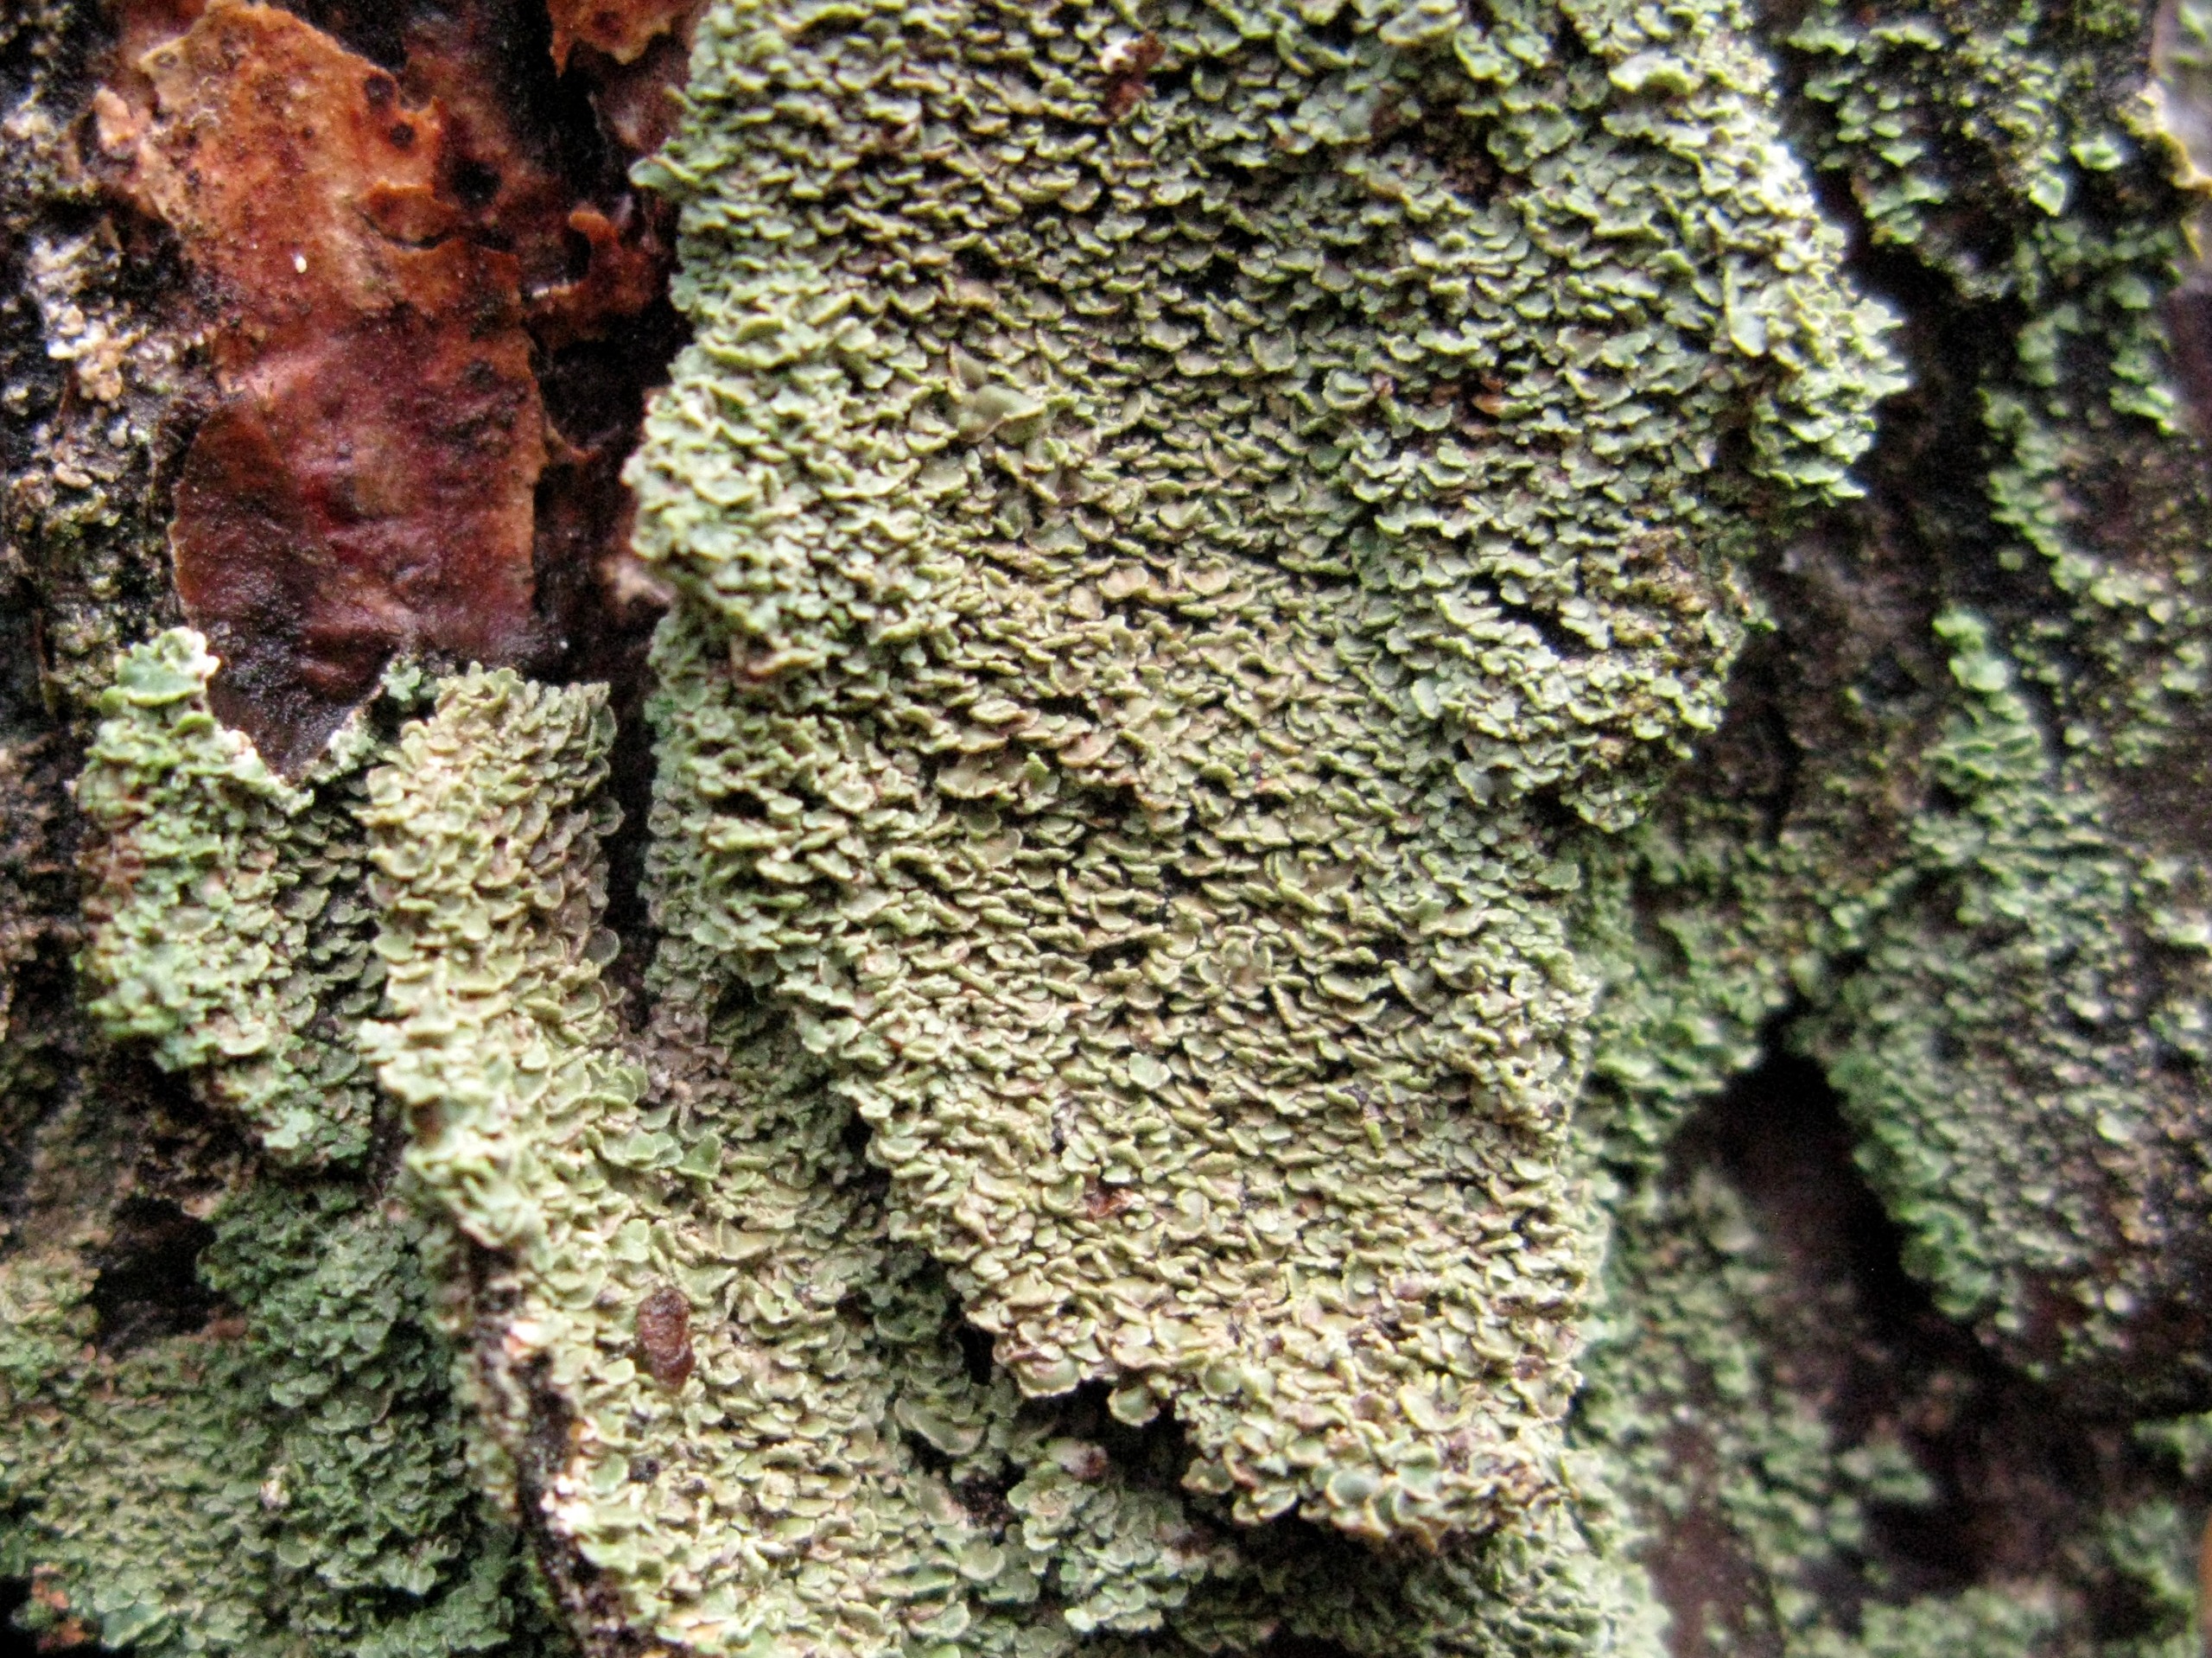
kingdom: Fungi
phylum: Ascomycota
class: Lecanoromycetes
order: Umbilicariales
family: Ophioparmaceae
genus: Hypocenomyce
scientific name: Hypocenomyce scalaris
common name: Småskællet muslinglav
